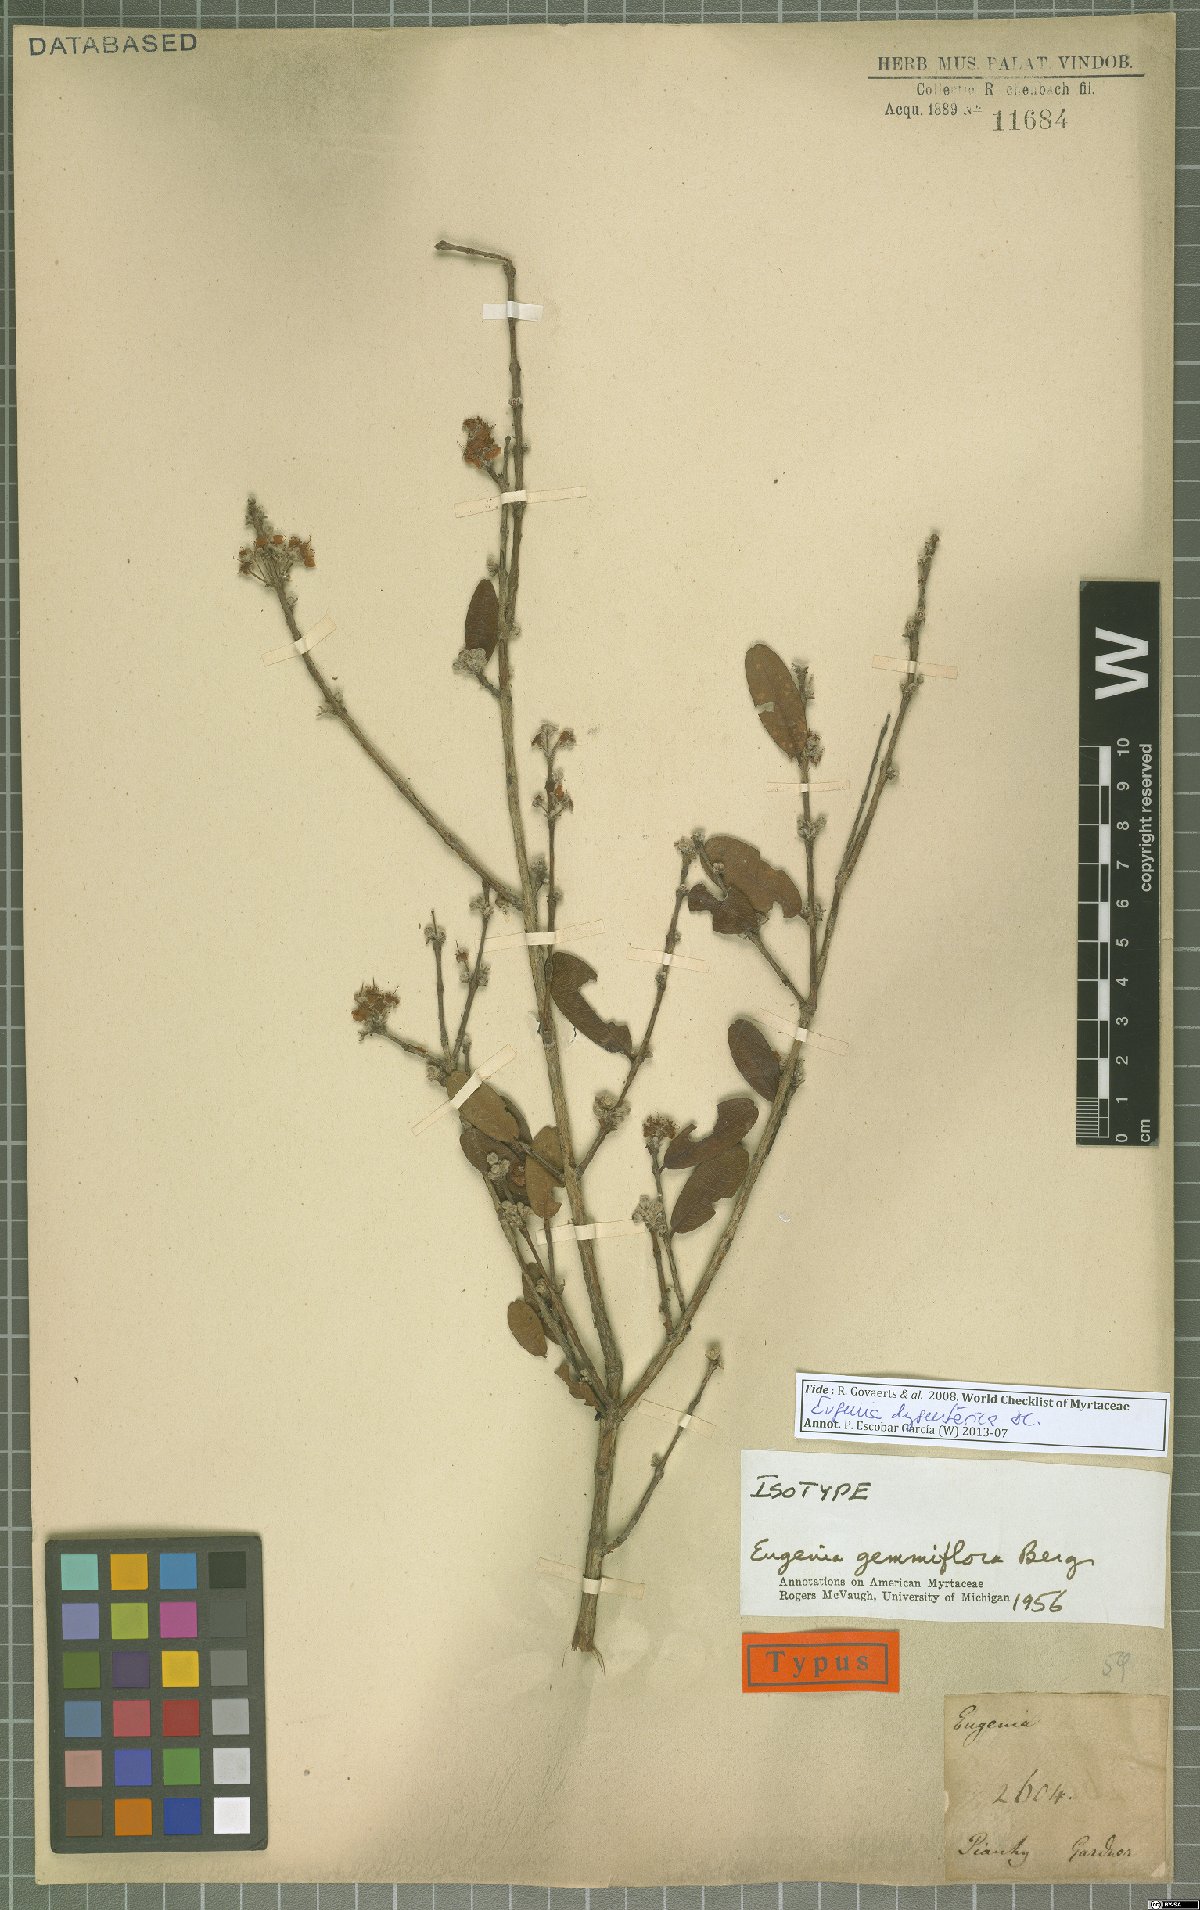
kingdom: Plantae
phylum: Tracheophyta
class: Magnoliopsida
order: Myrtales
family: Myrtaceae
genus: Eugenia
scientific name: Eugenia dysenterica
